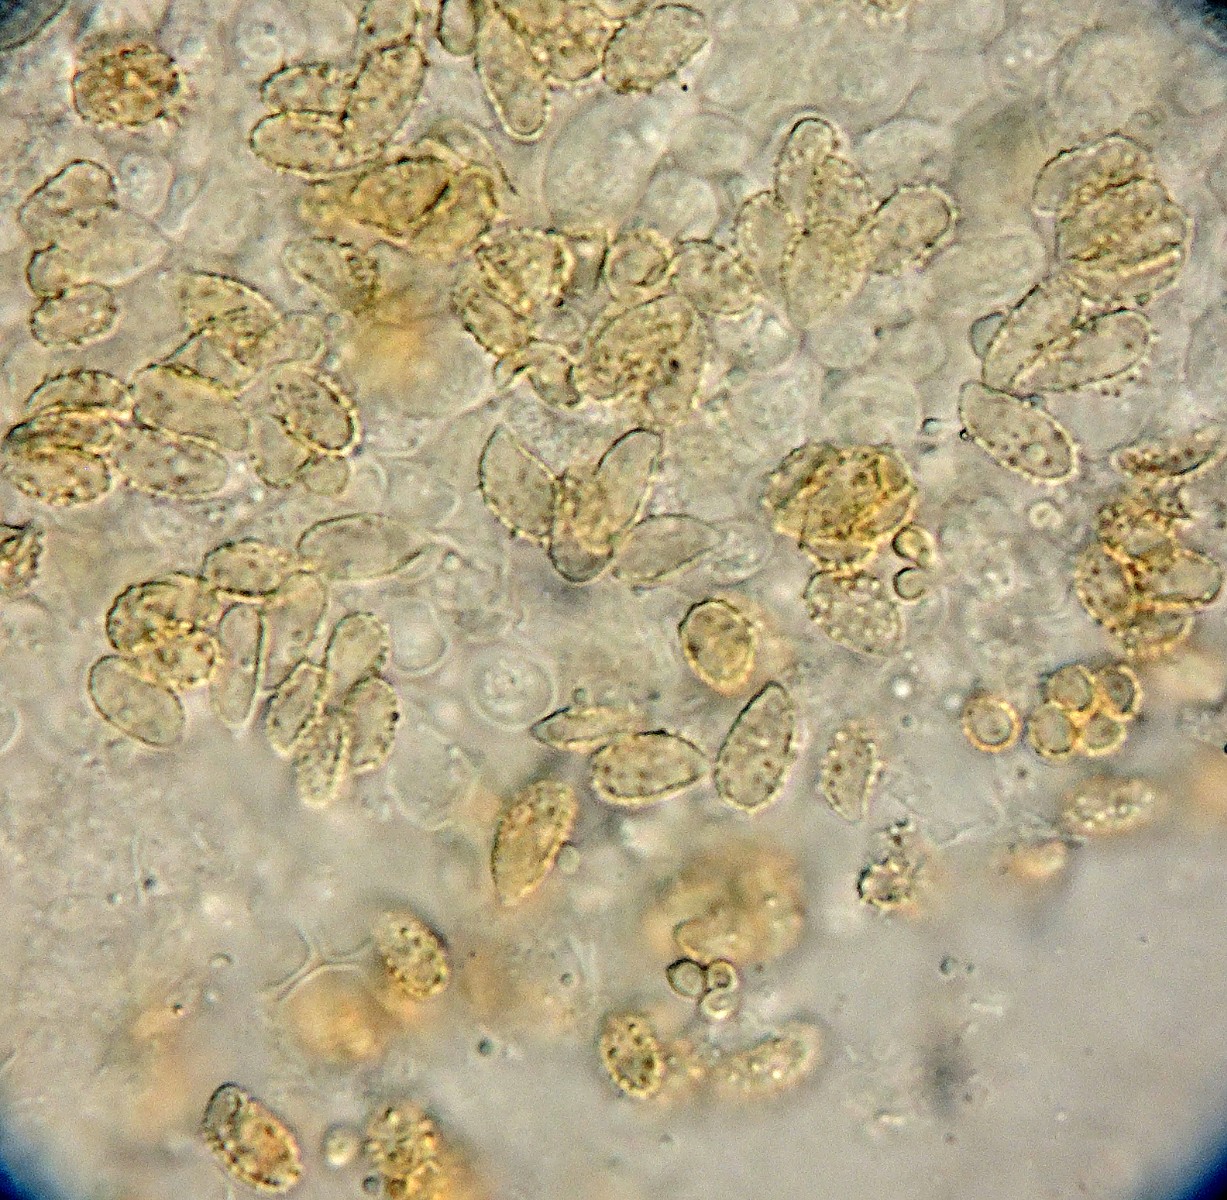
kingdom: Fungi
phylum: Basidiomycota
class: Agaricomycetes
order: Gomphales
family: Gomphaceae
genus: Phaeoclavulina
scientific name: Phaeoclavulina flaccida
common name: spinkel koralsvamp
